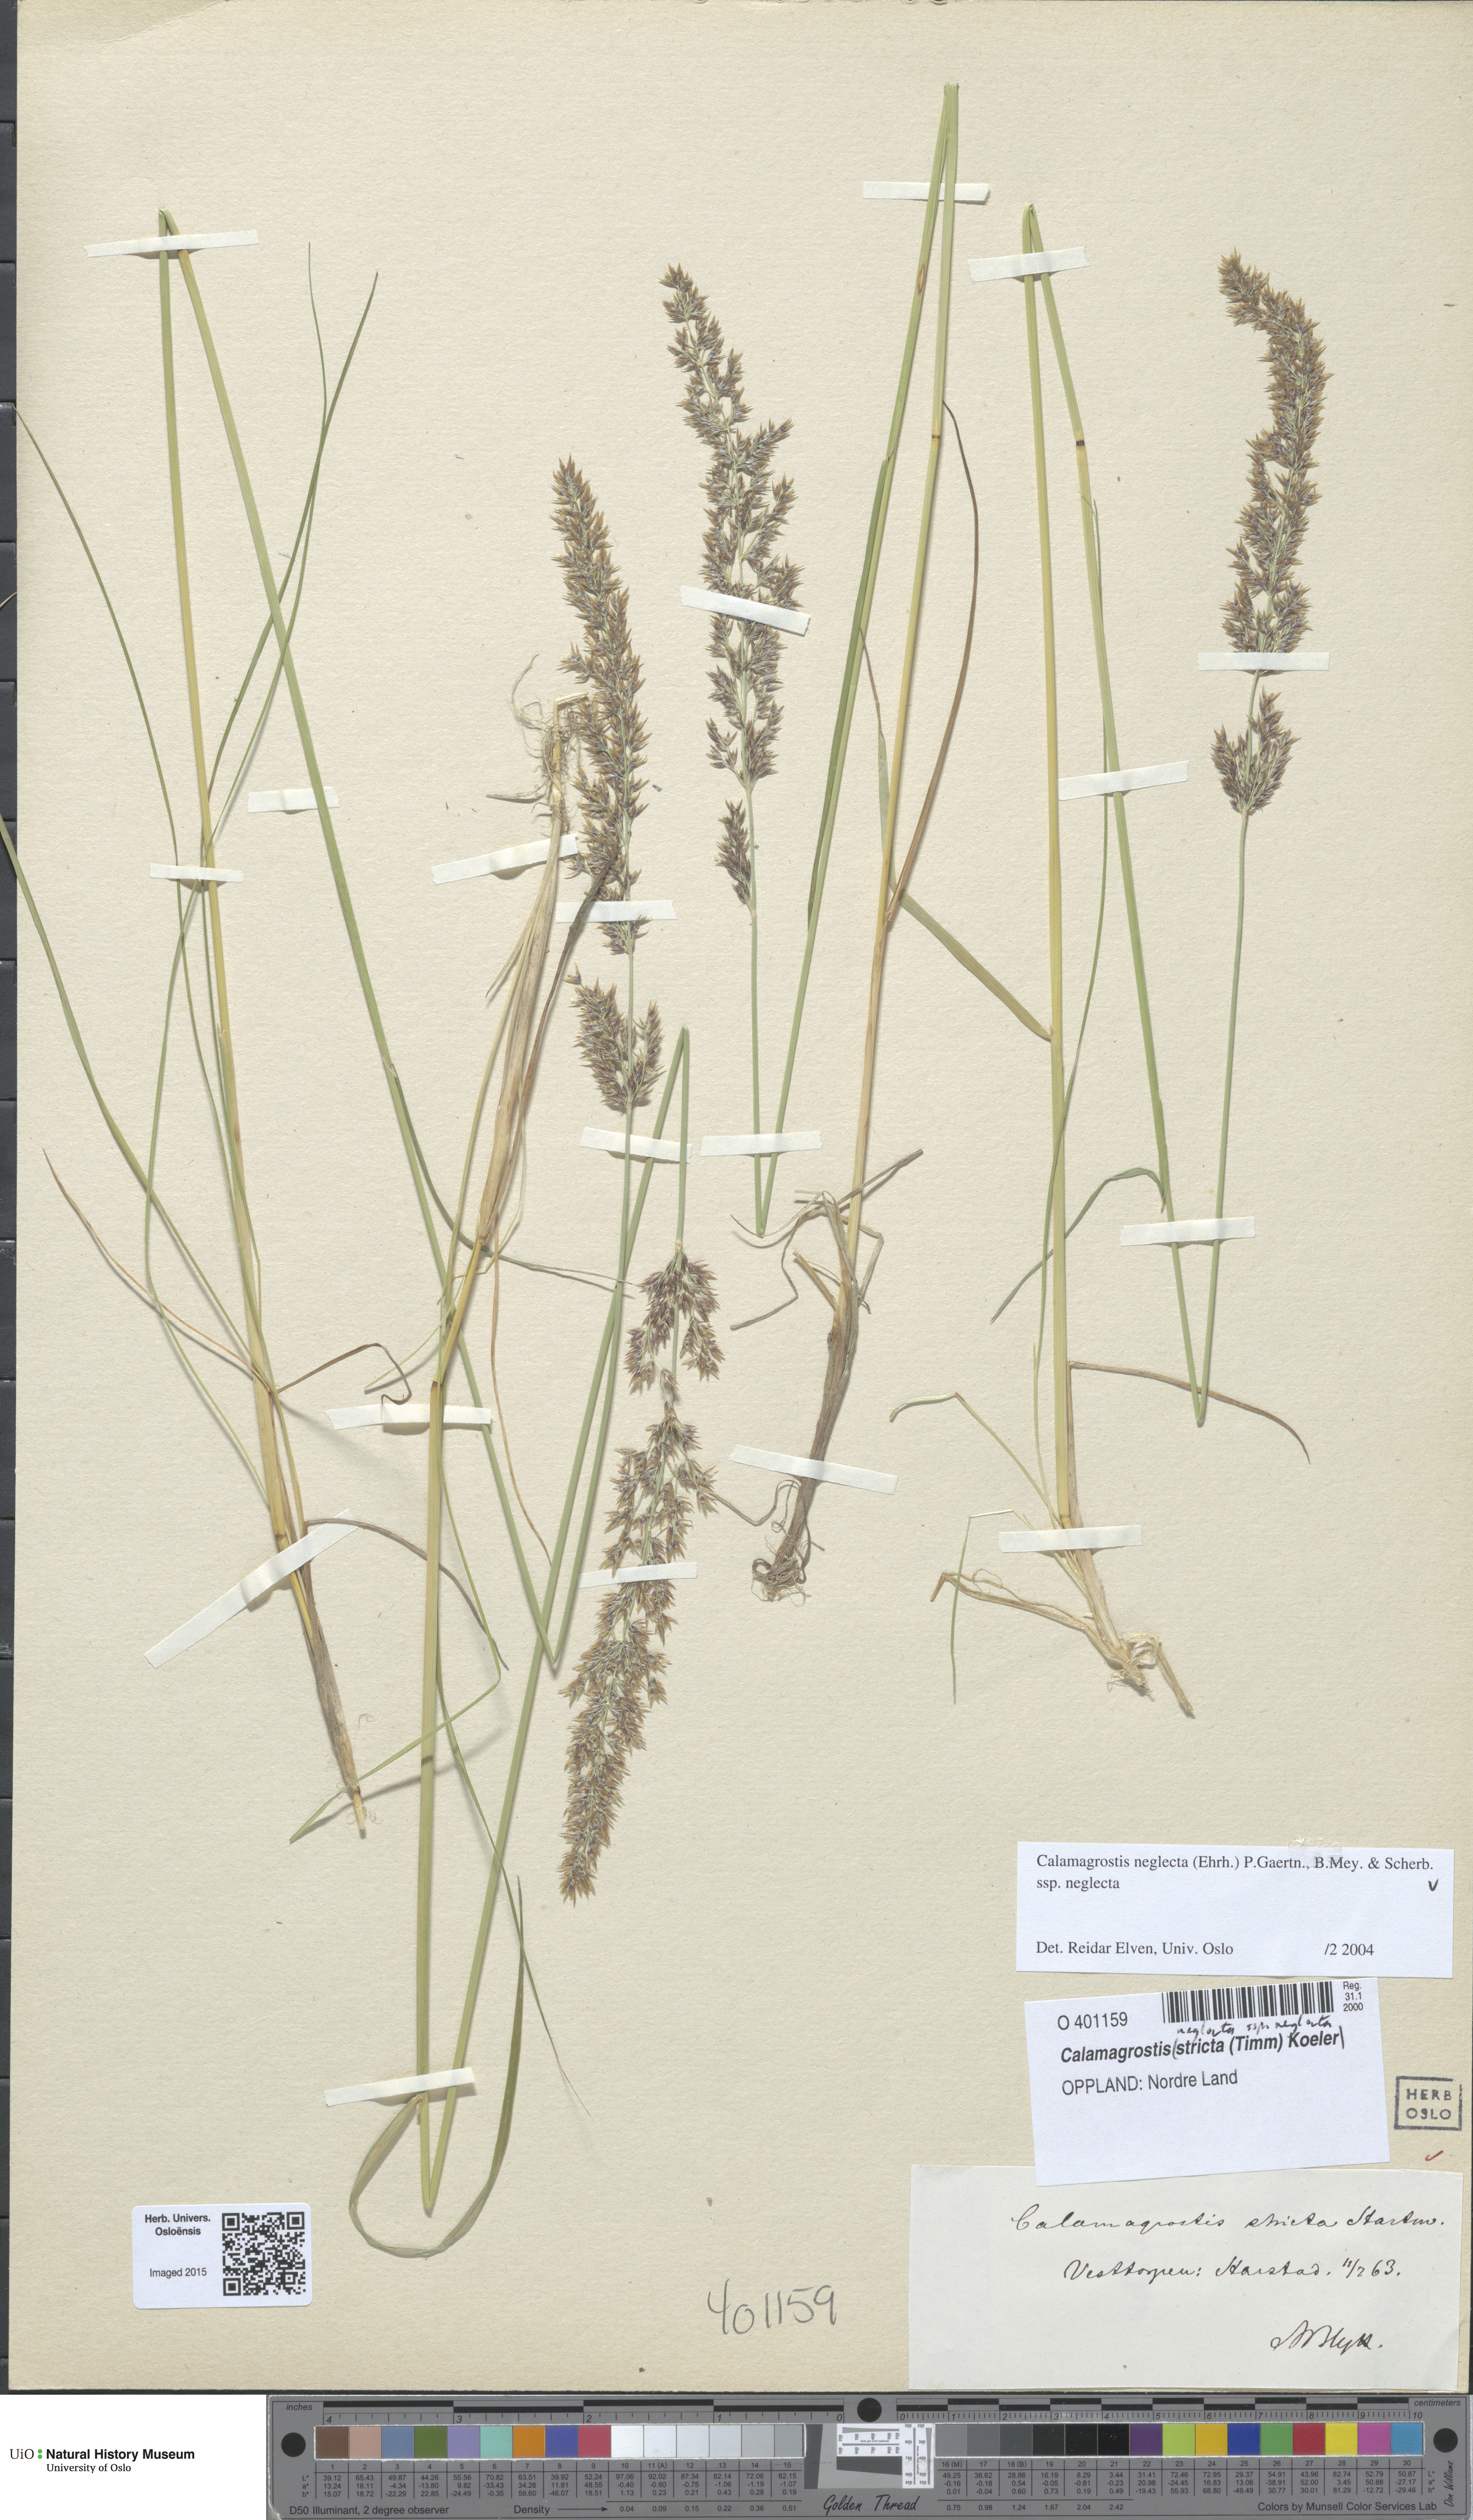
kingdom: Plantae
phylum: Tracheophyta
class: Liliopsida
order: Poales
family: Poaceae
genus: Achnatherum
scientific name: Achnatherum calamagrostis
